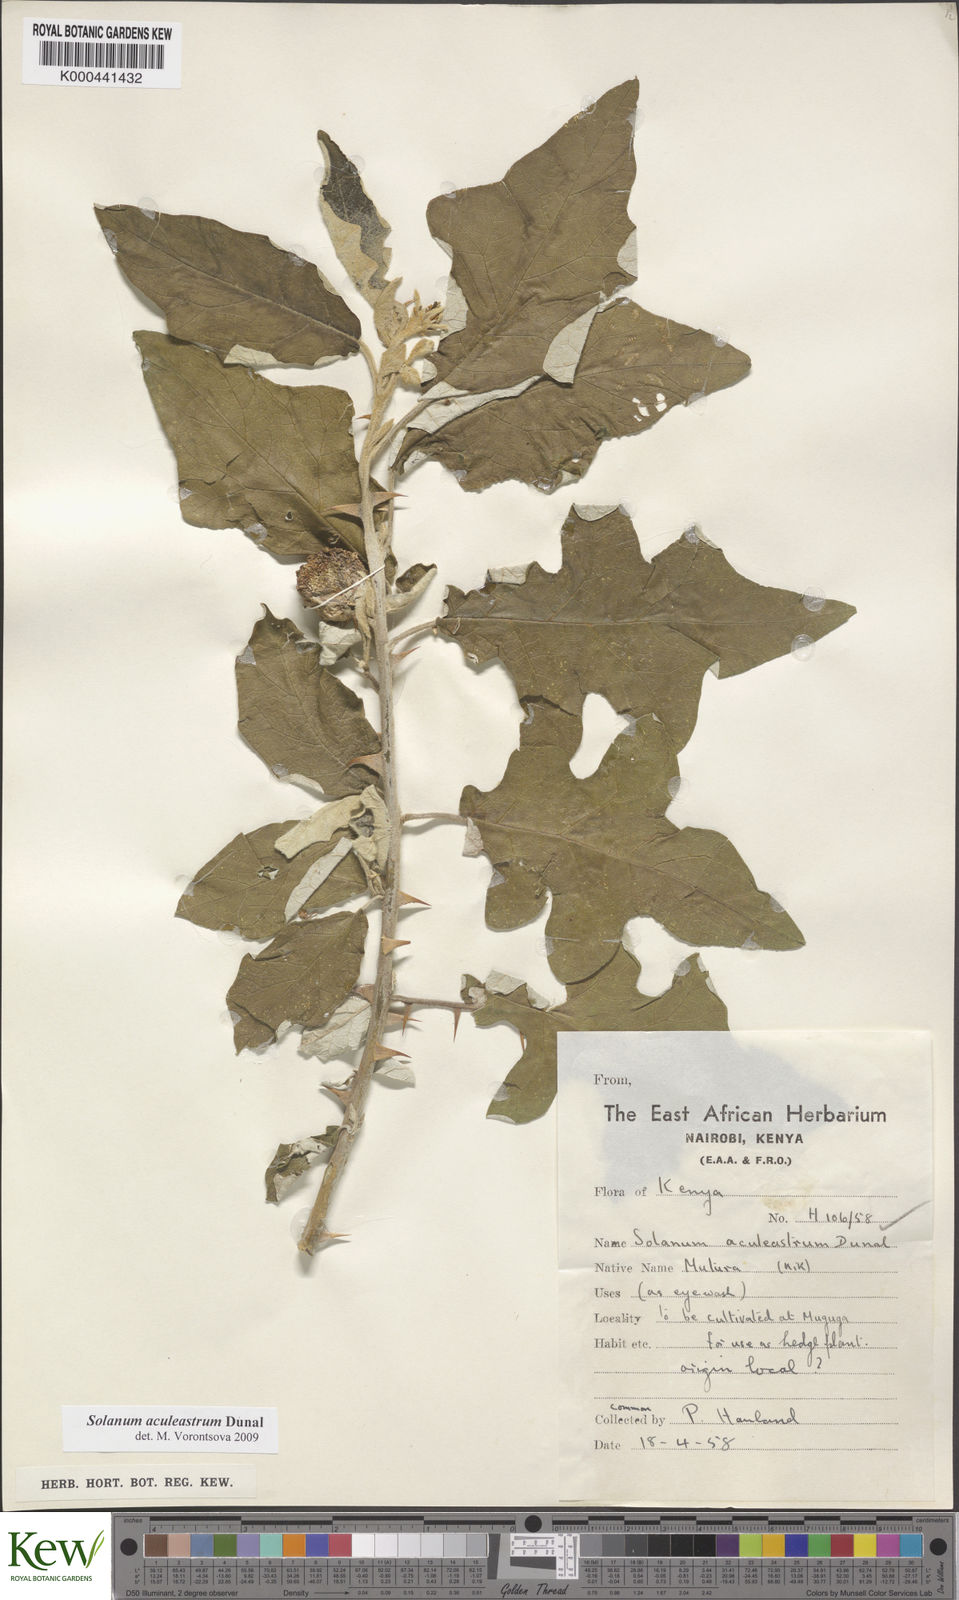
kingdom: Plantae
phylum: Tracheophyta
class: Magnoliopsida
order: Solanales
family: Solanaceae
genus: Solanum
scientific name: Solanum aculeastrum
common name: Goat bitter-apple
